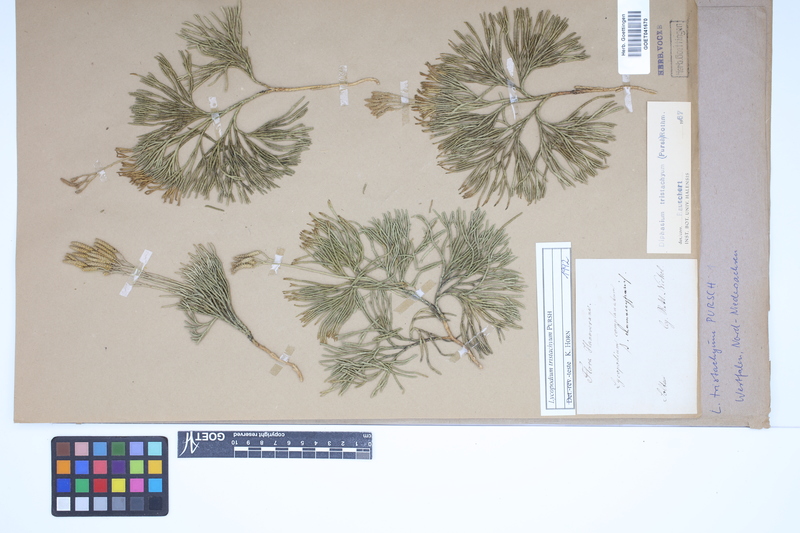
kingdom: Plantae
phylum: Tracheophyta
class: Lycopodiopsida
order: Lycopodiales
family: Lycopodiaceae
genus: Diphasiastrum
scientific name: Diphasiastrum tristachyum
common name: Blue ground-cedar
